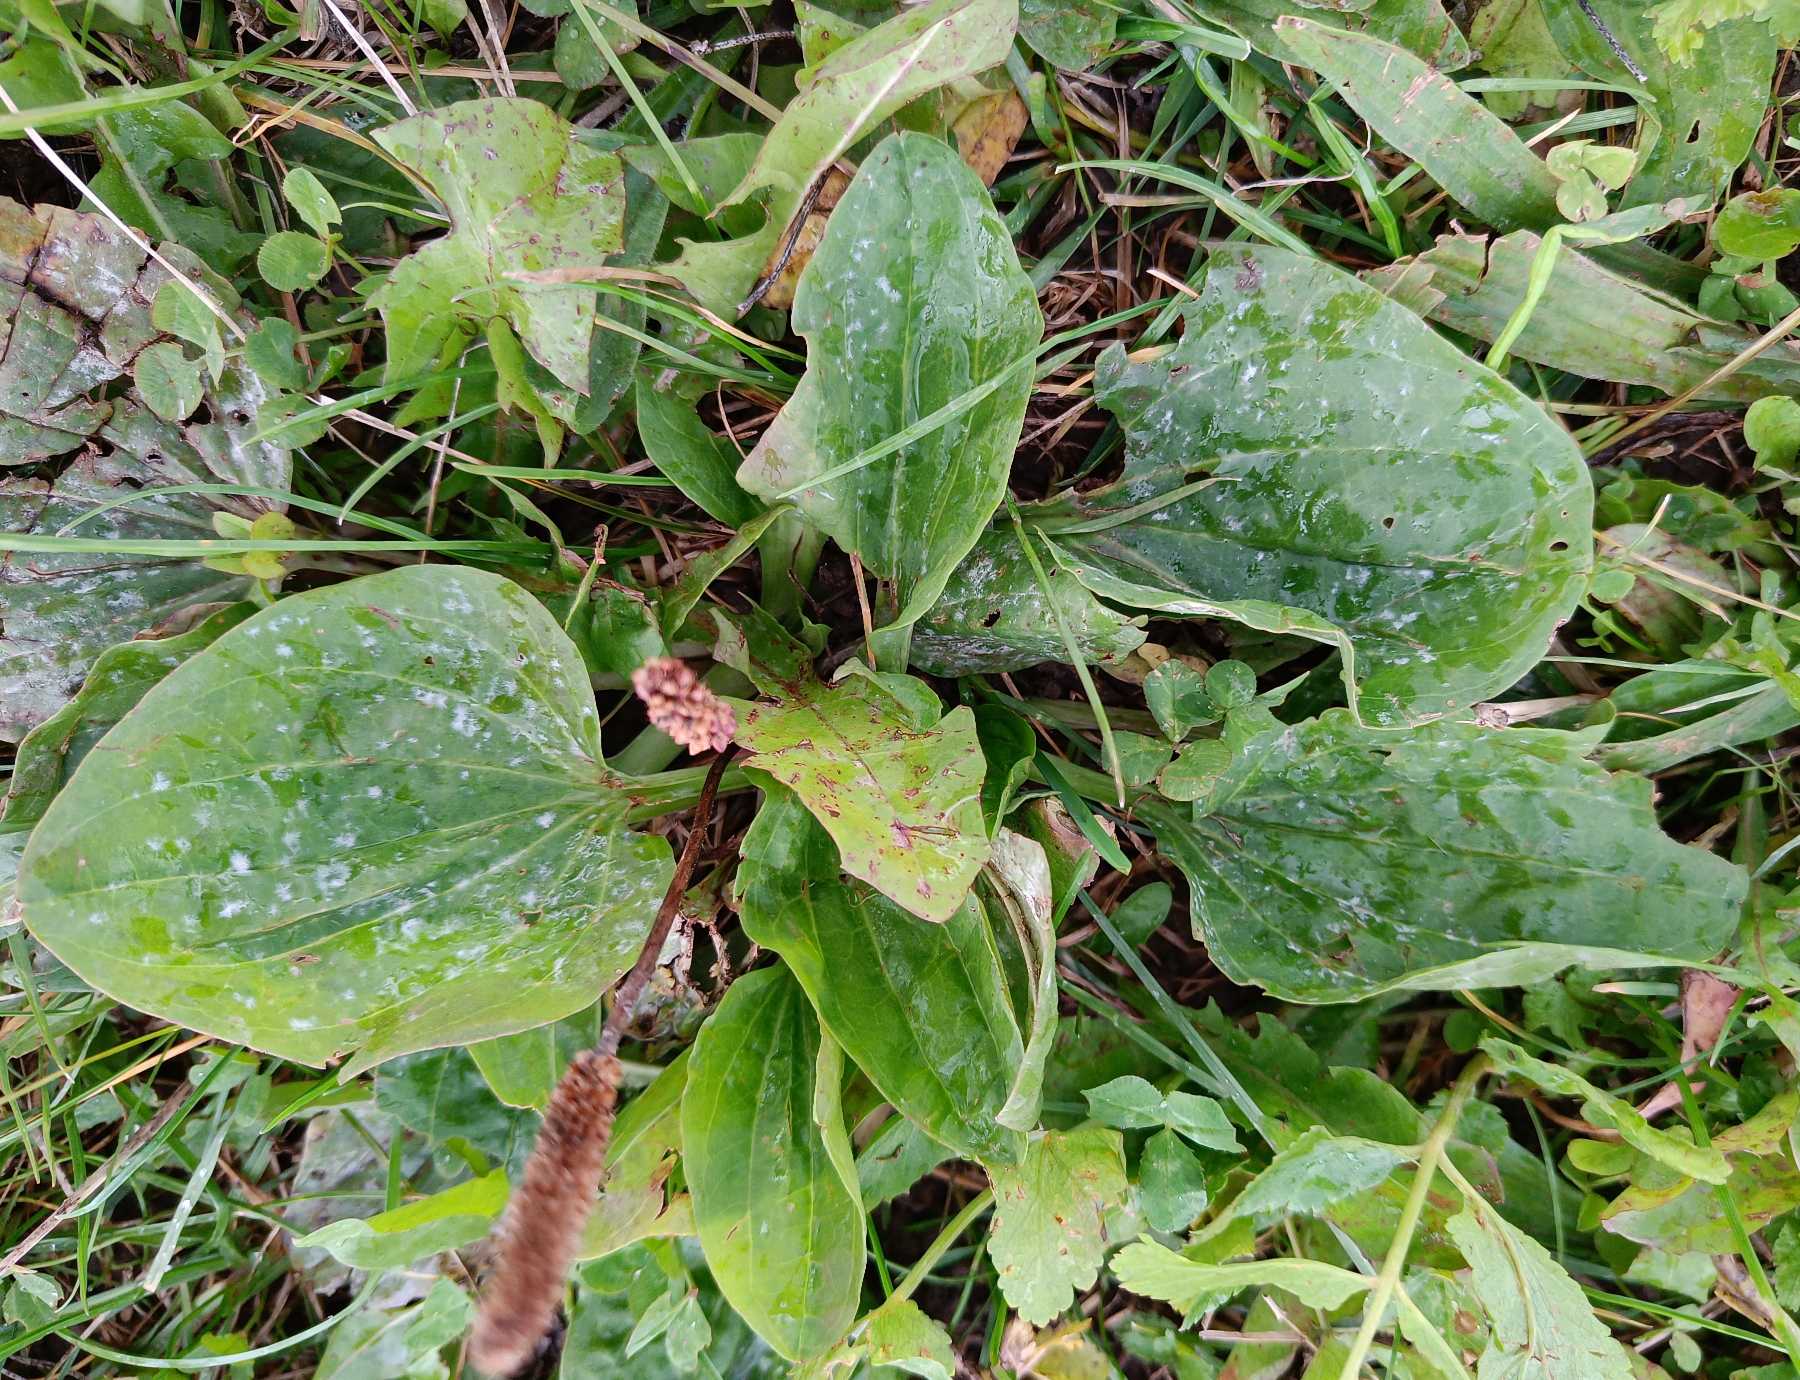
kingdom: Plantae
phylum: Tracheophyta
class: Magnoliopsida
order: Lamiales
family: Plantaginaceae
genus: Plantago
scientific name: Plantago major
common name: Glat vejbred
